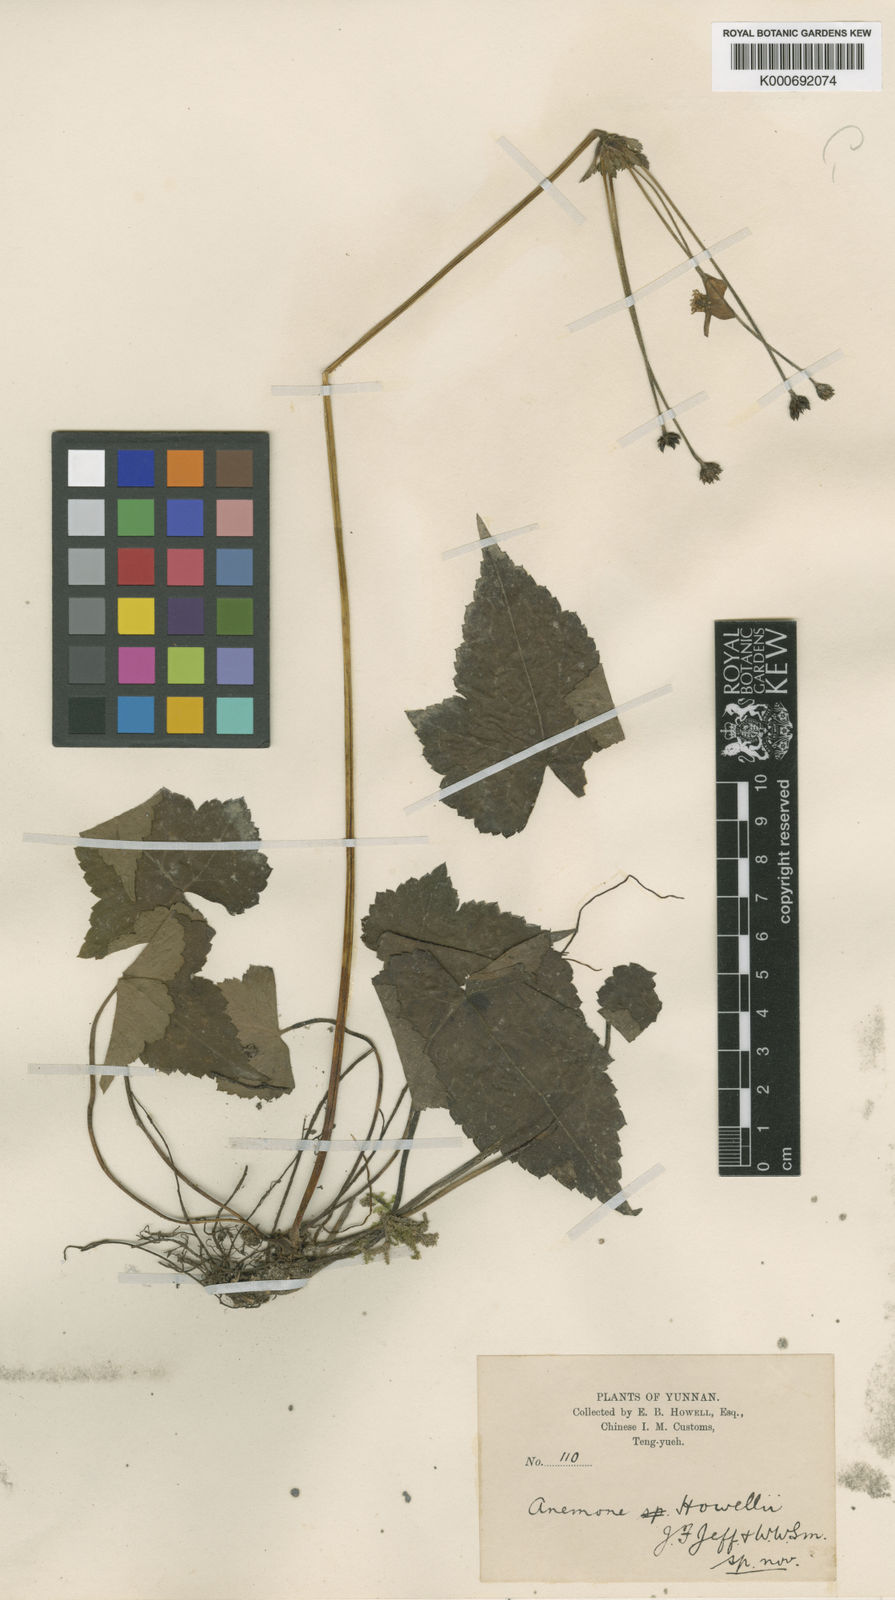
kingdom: Plantae
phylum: Tracheophyta
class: Magnoliopsida
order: Ranunculales
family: Ranunculaceae
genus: Anemone
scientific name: Anemone howellii
